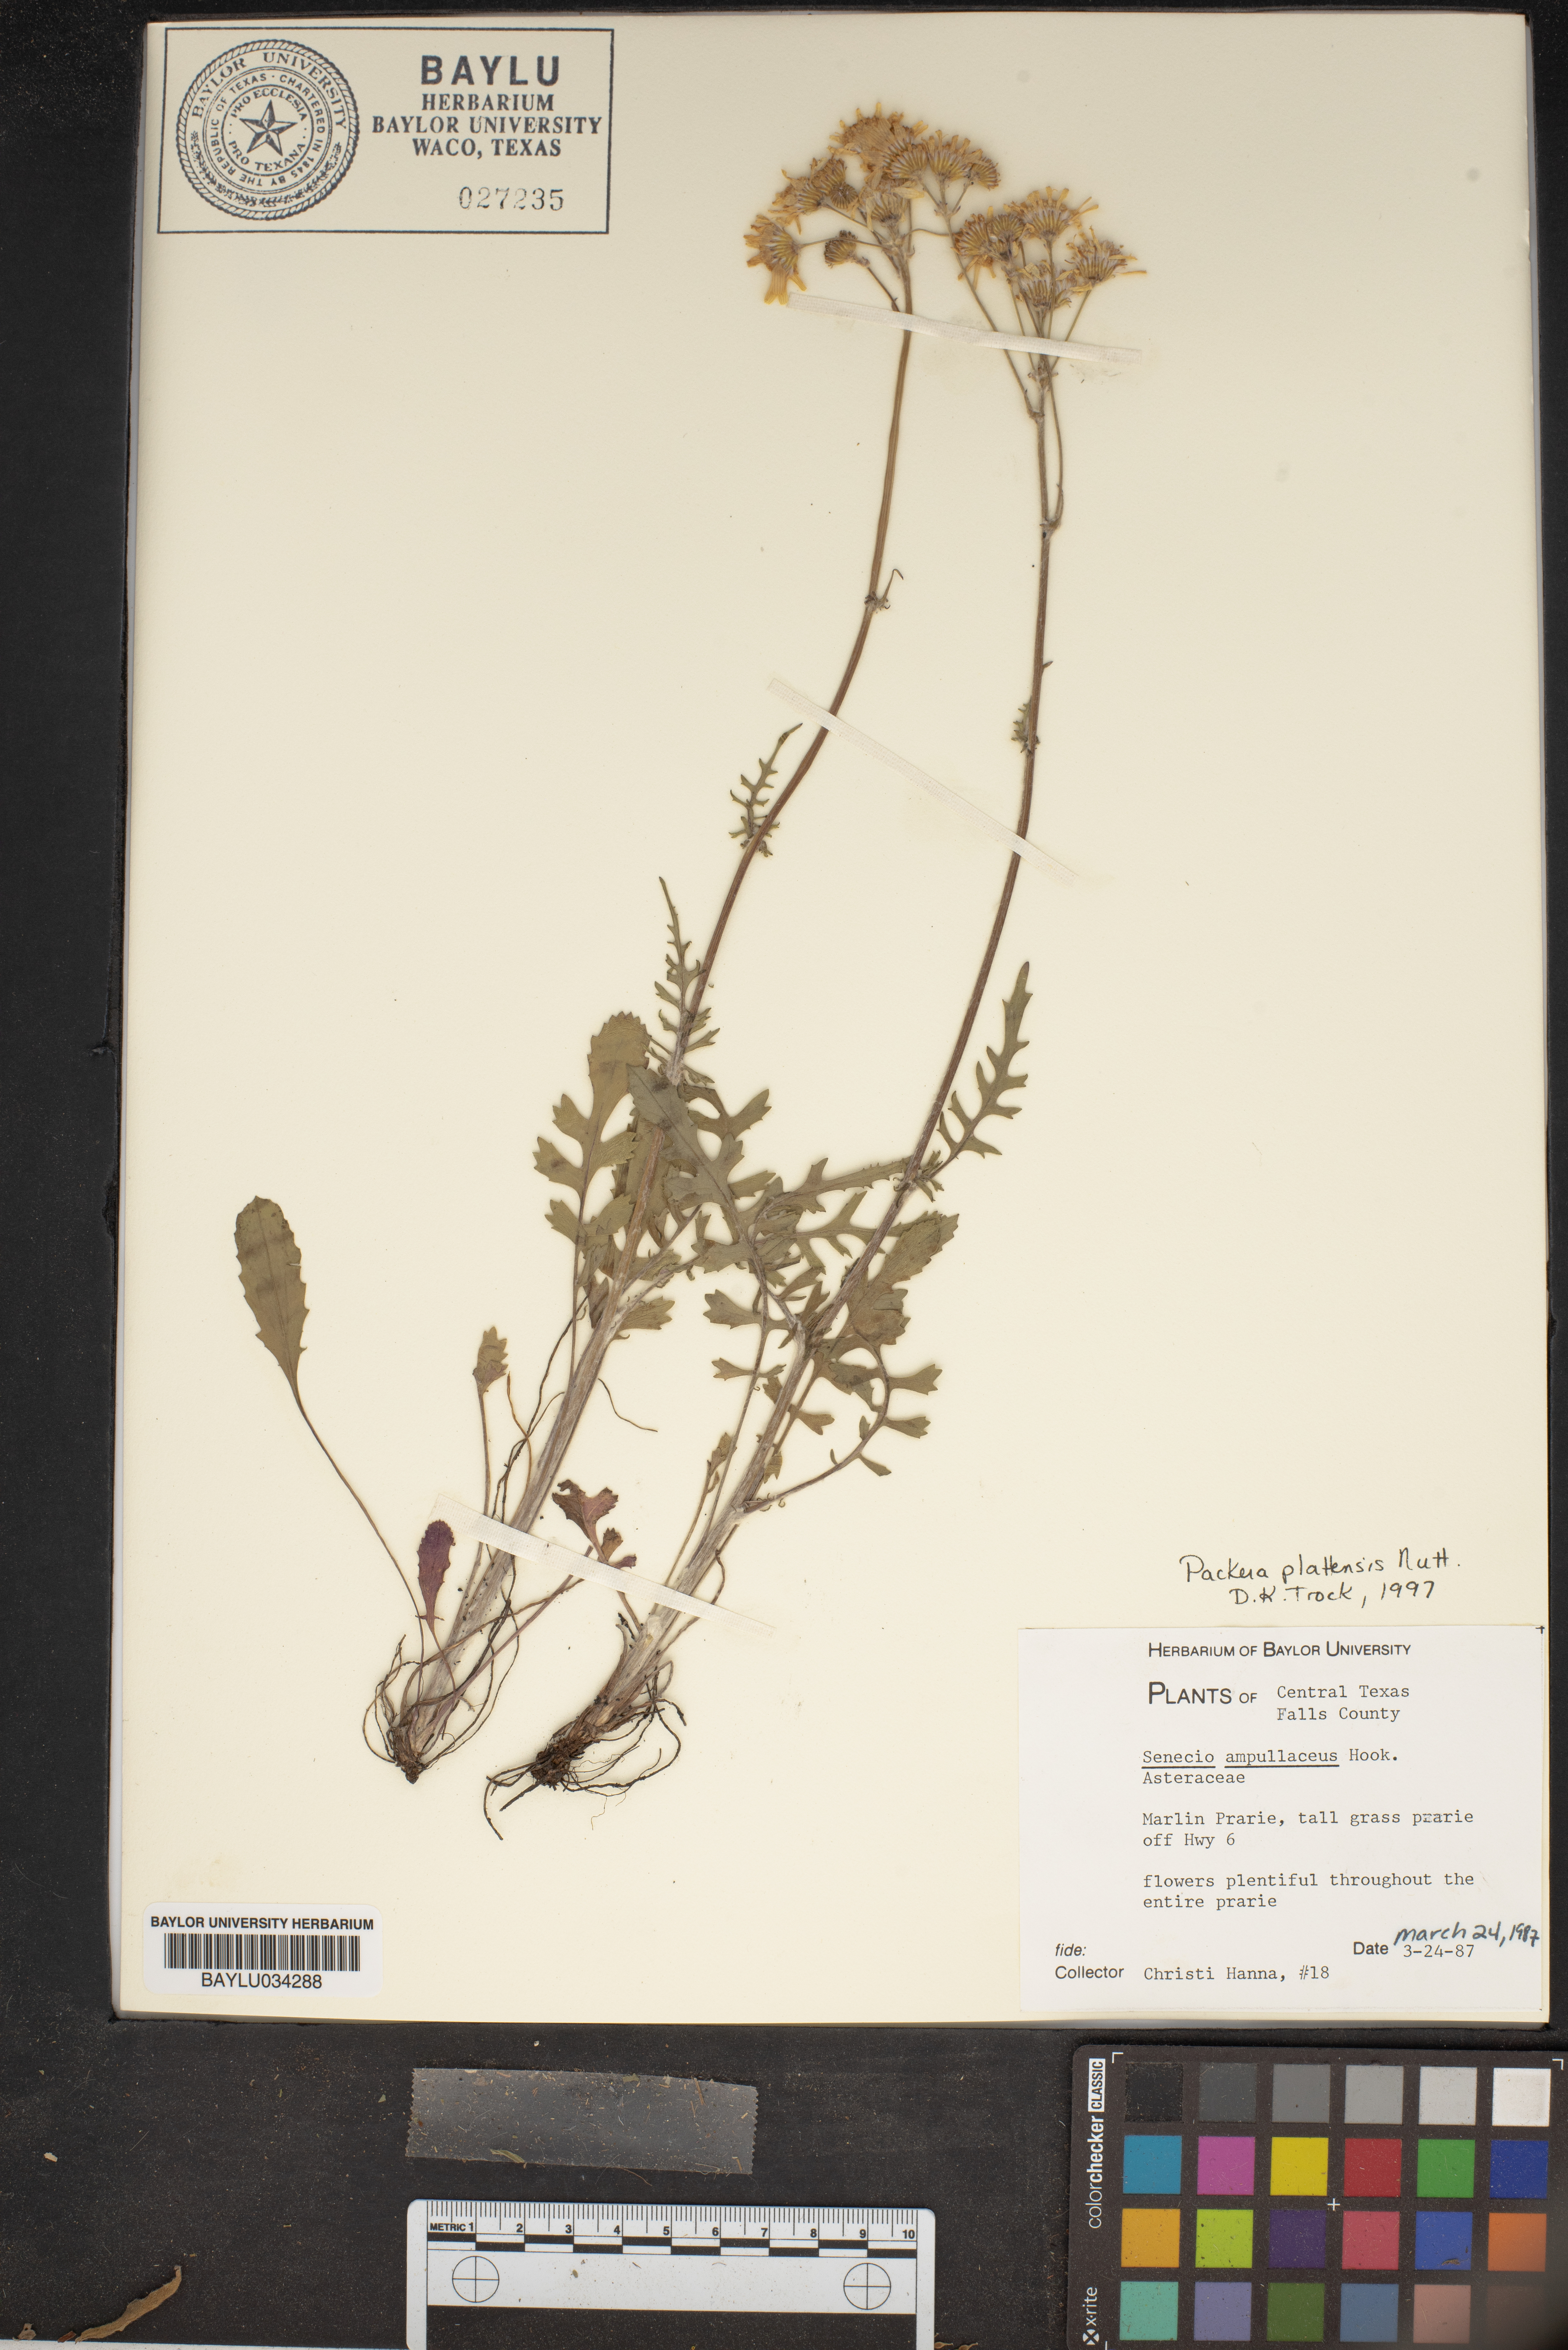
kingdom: Plantae
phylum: Tracheophyta
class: Magnoliopsida
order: Asterales
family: Asteraceae
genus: Packera
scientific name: Packera plattensis
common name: Prairie groundsel
